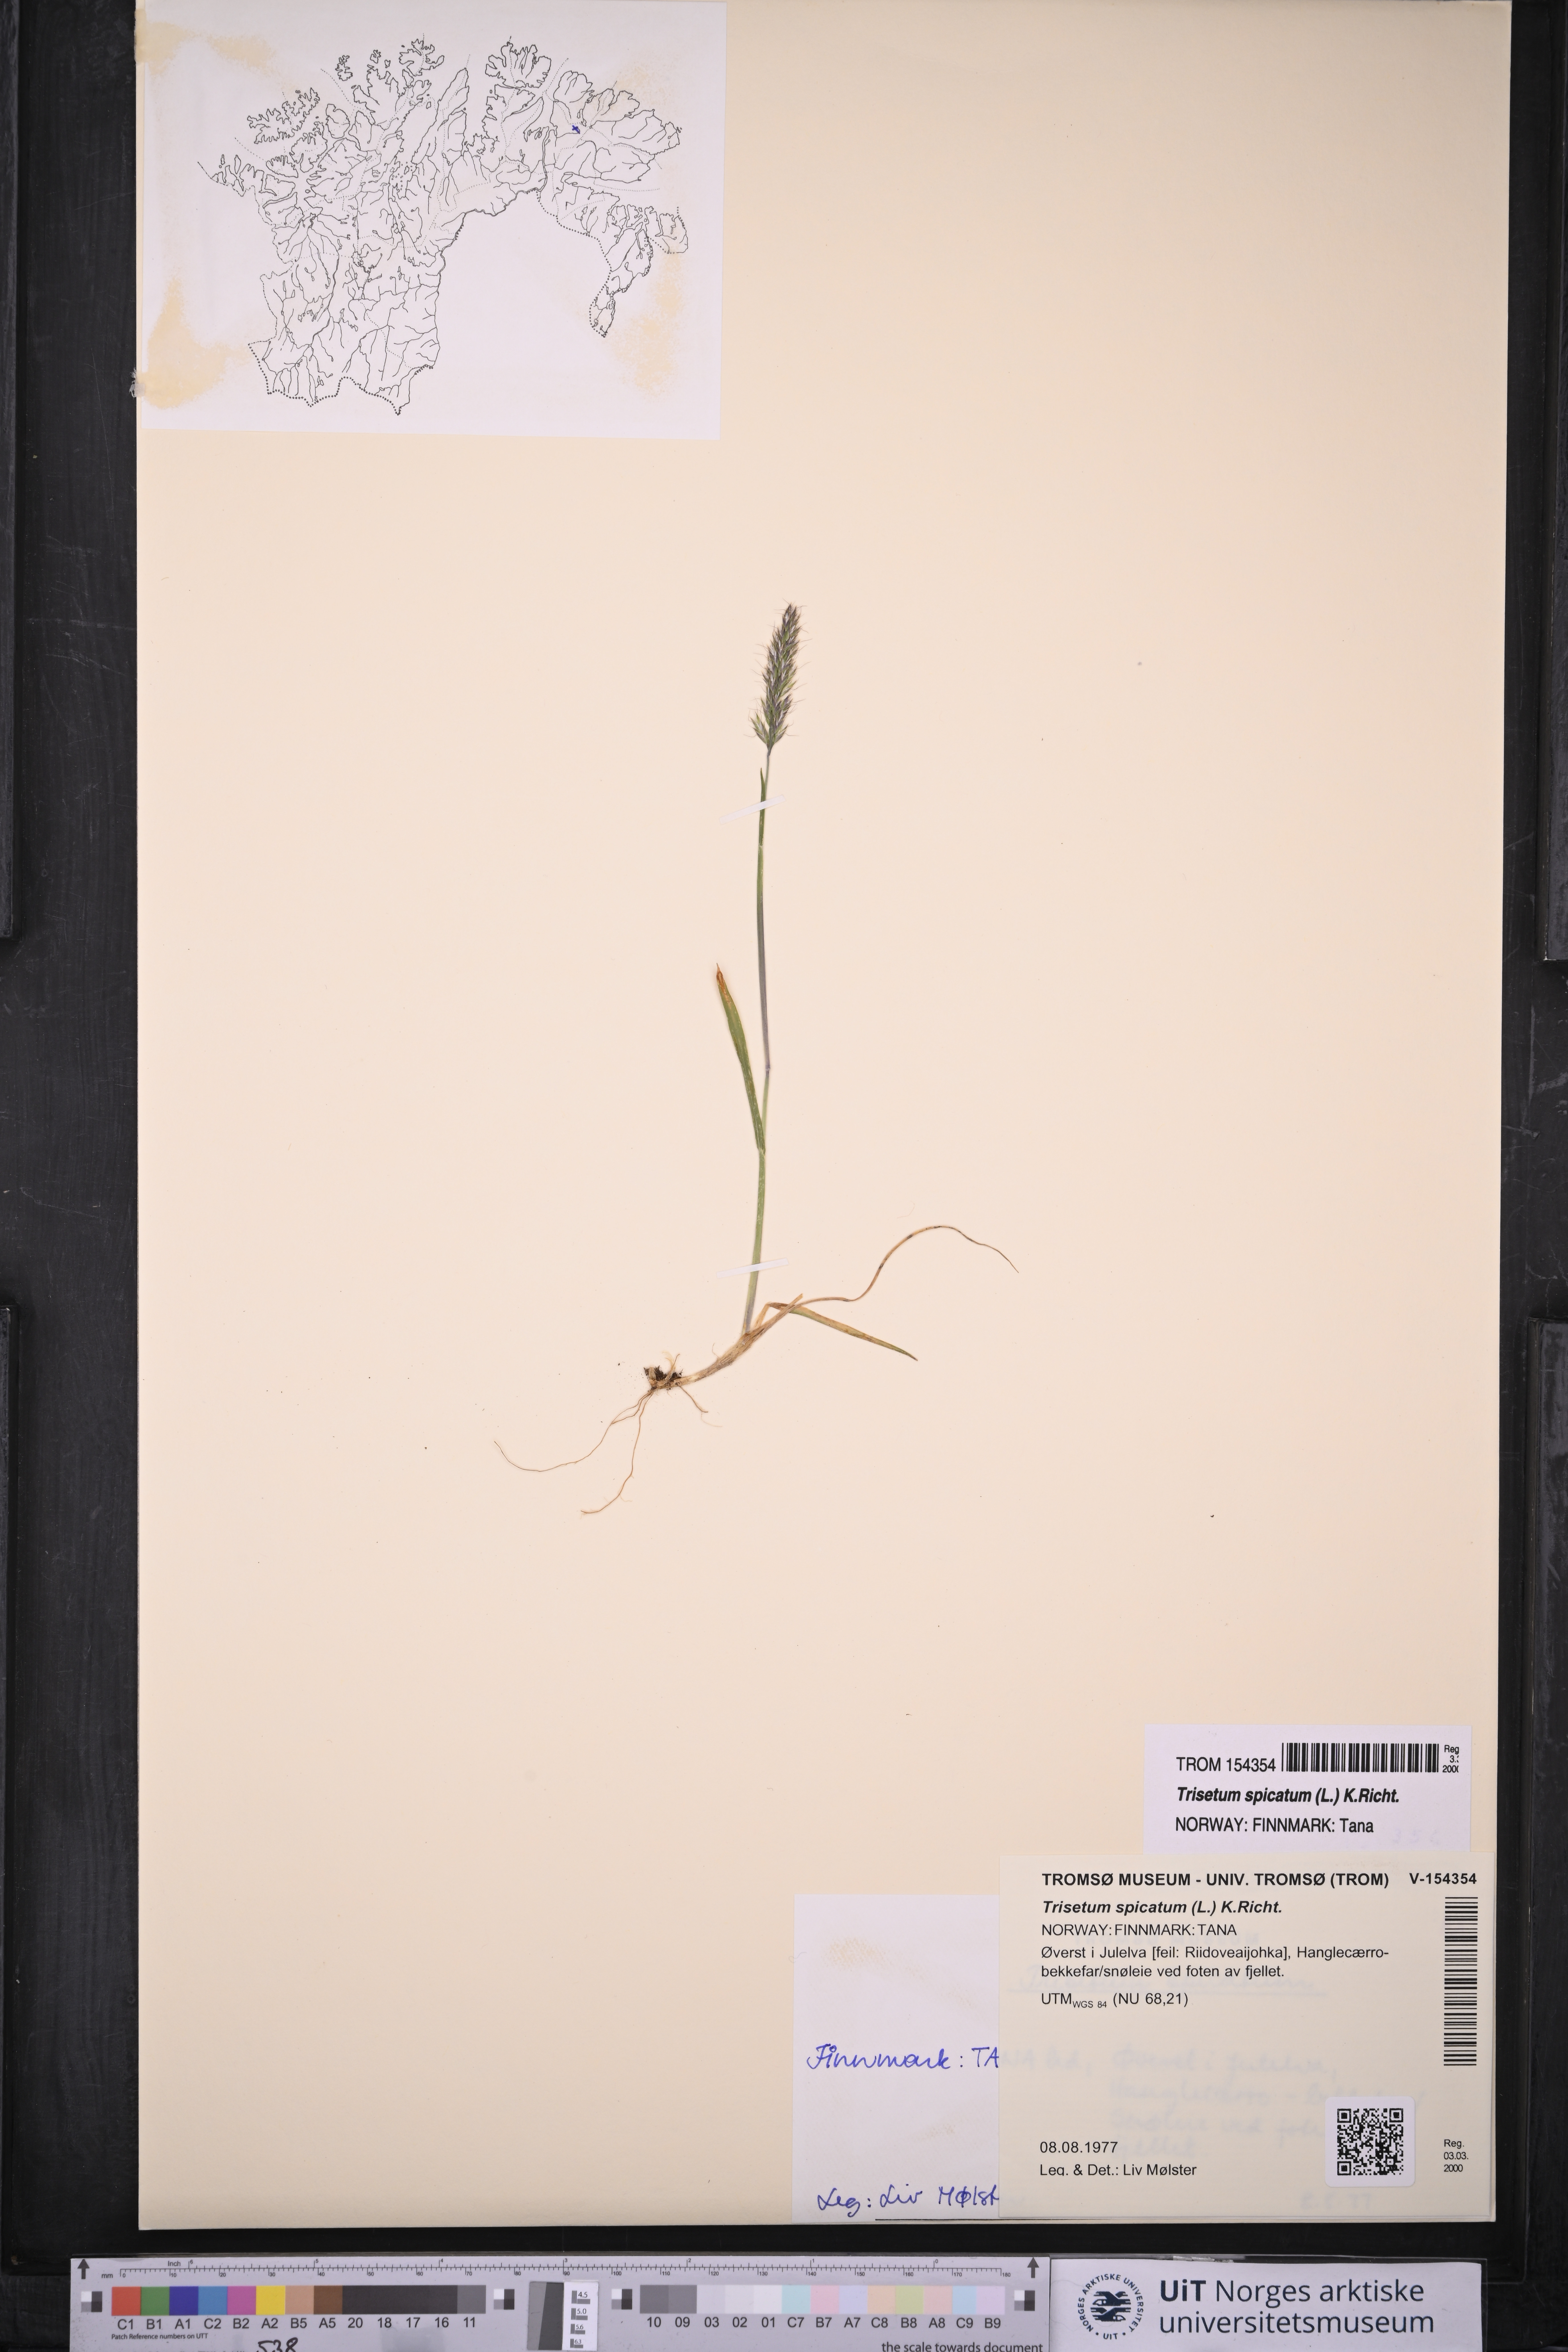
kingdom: Plantae
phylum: Tracheophyta
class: Liliopsida
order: Poales
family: Poaceae
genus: Koeleria
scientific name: Koeleria spicata
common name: Mountain trisetum
